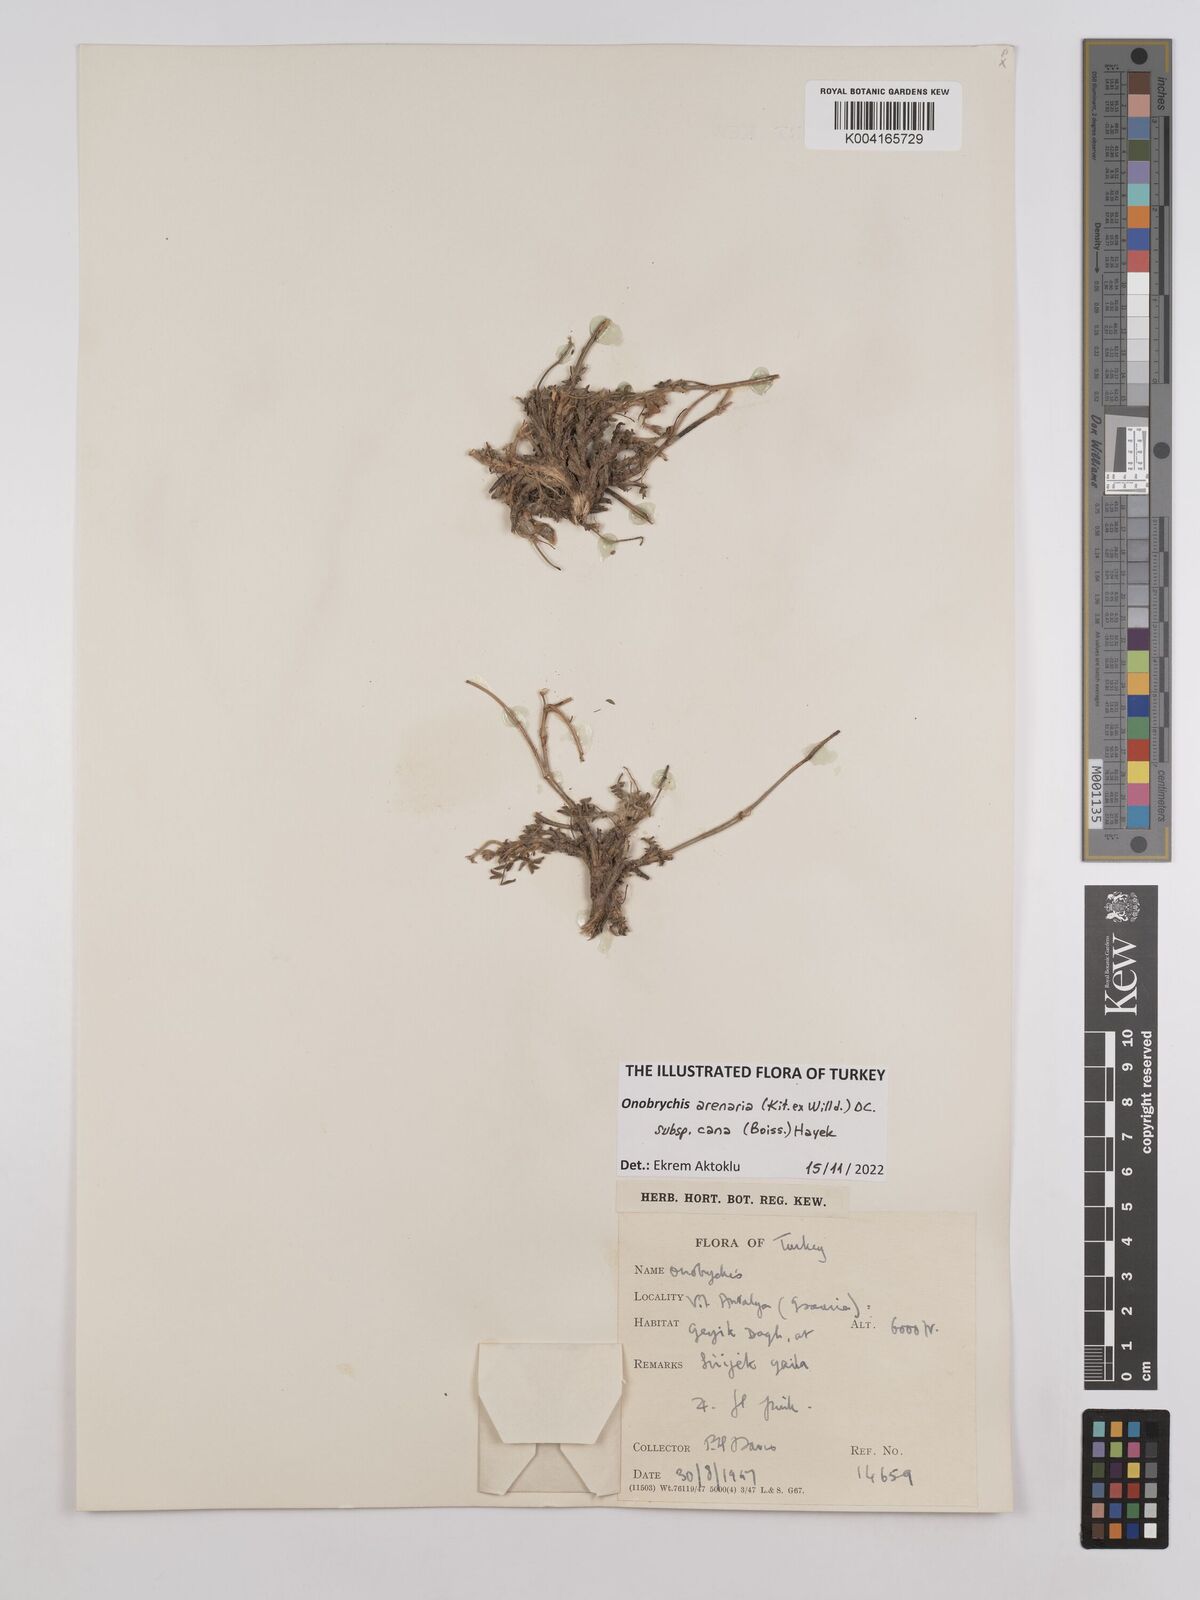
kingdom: Plantae
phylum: Tracheophyta
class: Magnoliopsida
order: Fabales
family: Fabaceae
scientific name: Fabaceae
